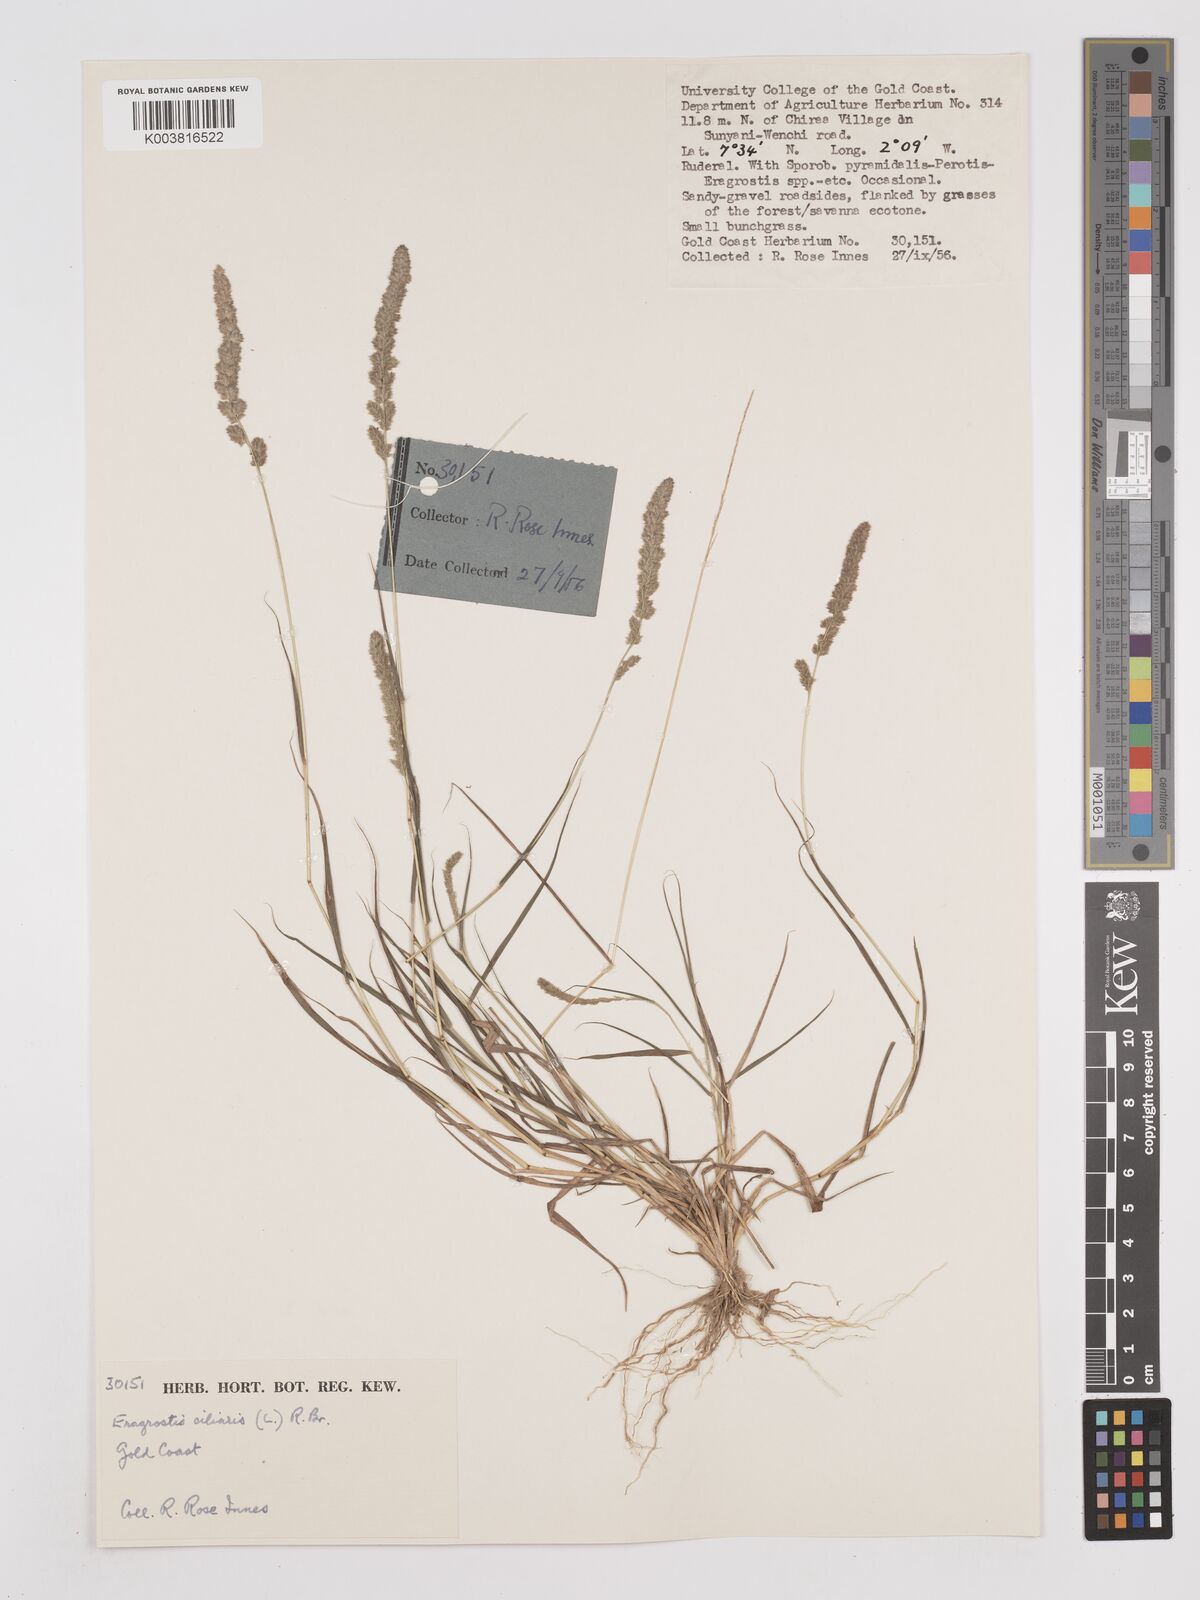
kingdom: Plantae
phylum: Tracheophyta
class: Liliopsida
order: Poales
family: Poaceae
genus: Eragrostis
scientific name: Eragrostis ciliaris
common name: Gophertail lovegrass
